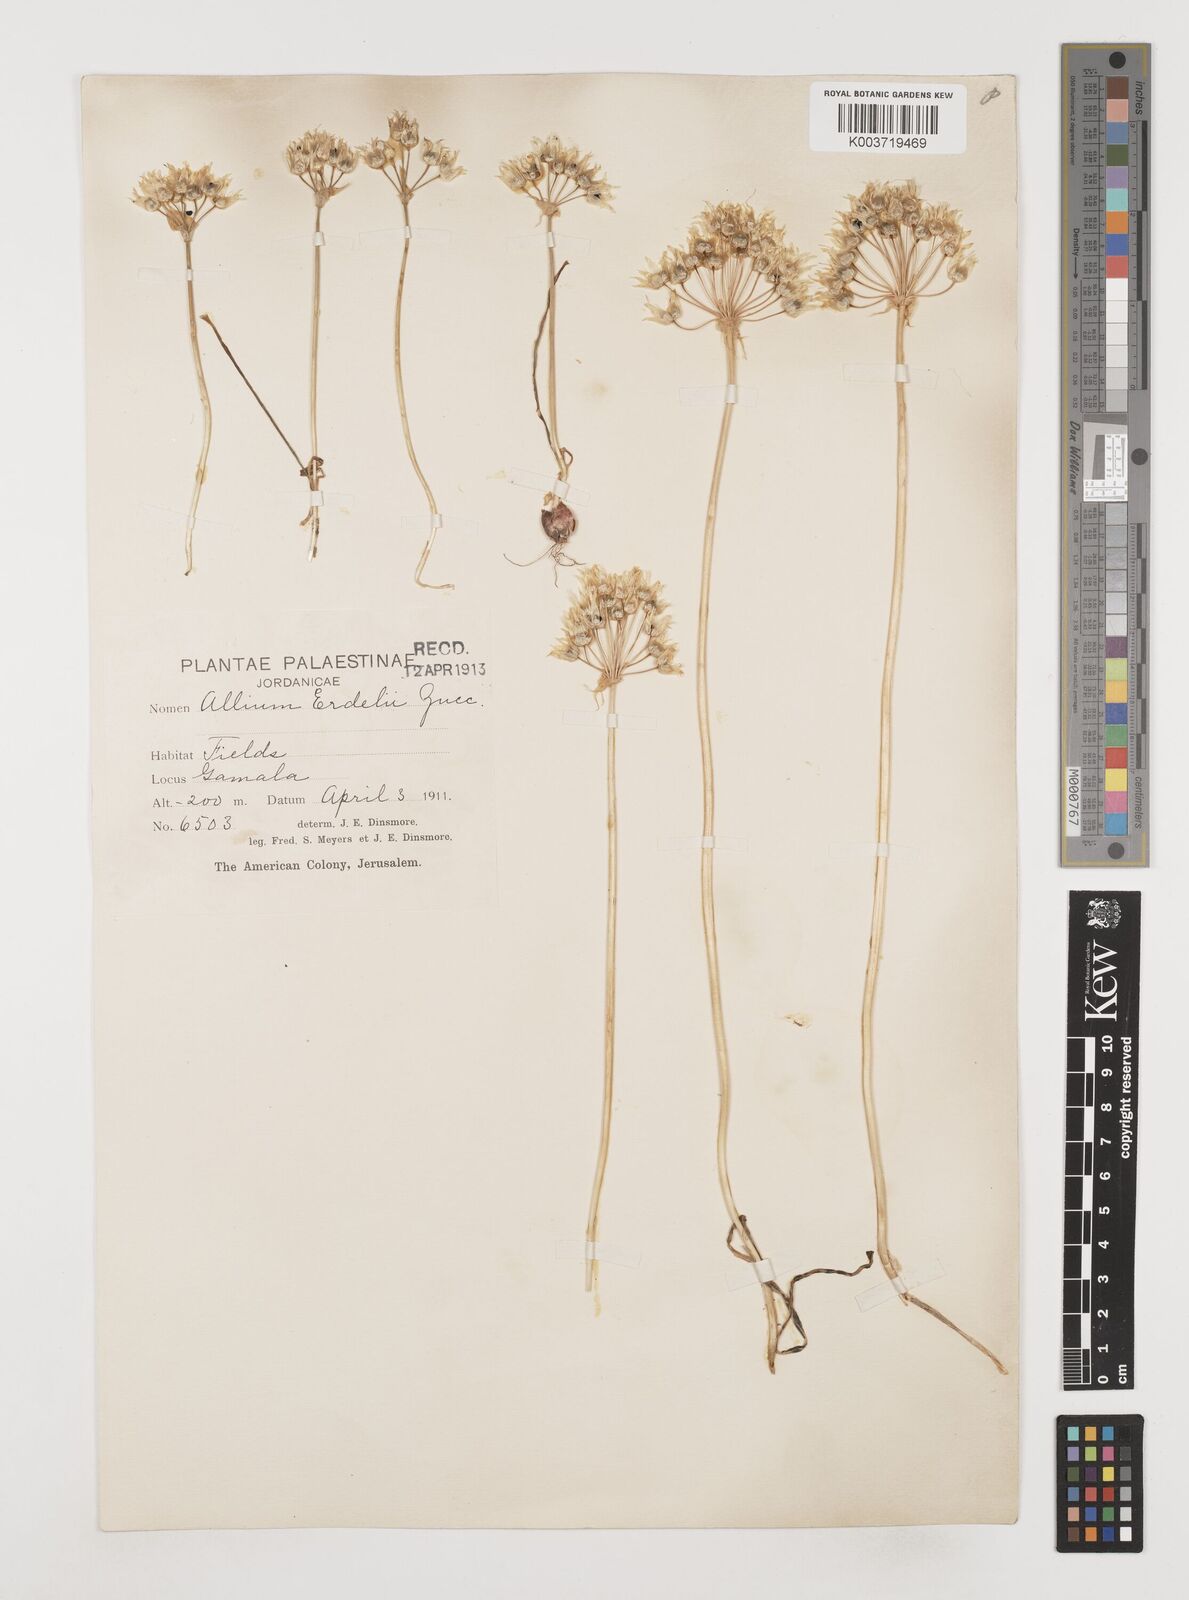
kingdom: Plantae
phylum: Tracheophyta
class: Liliopsida
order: Asparagales
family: Amaryllidaceae
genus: Allium
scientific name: Allium erdelii
